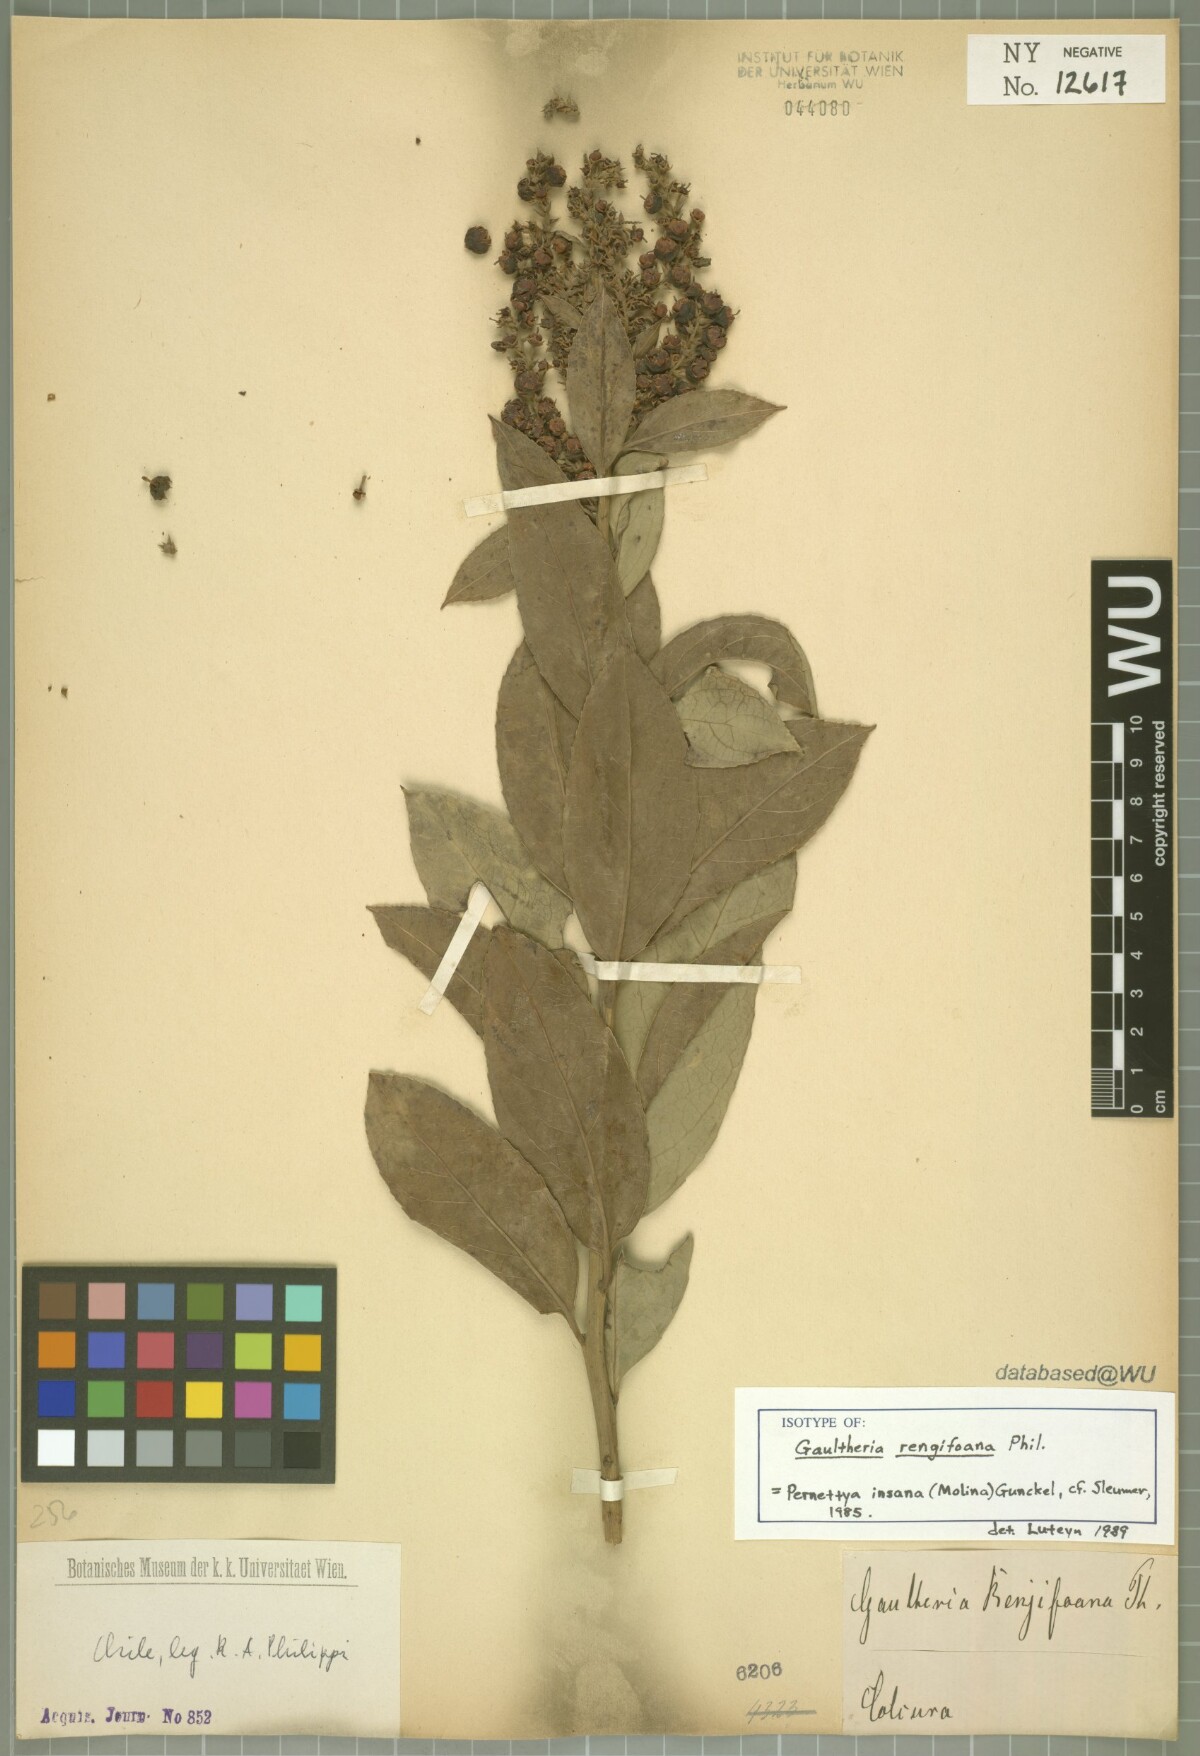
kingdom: Plantae
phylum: Tracheophyta
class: Magnoliopsida
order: Ericales
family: Ericaceae
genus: Gaultheria
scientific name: Gaultheria rengifoana
